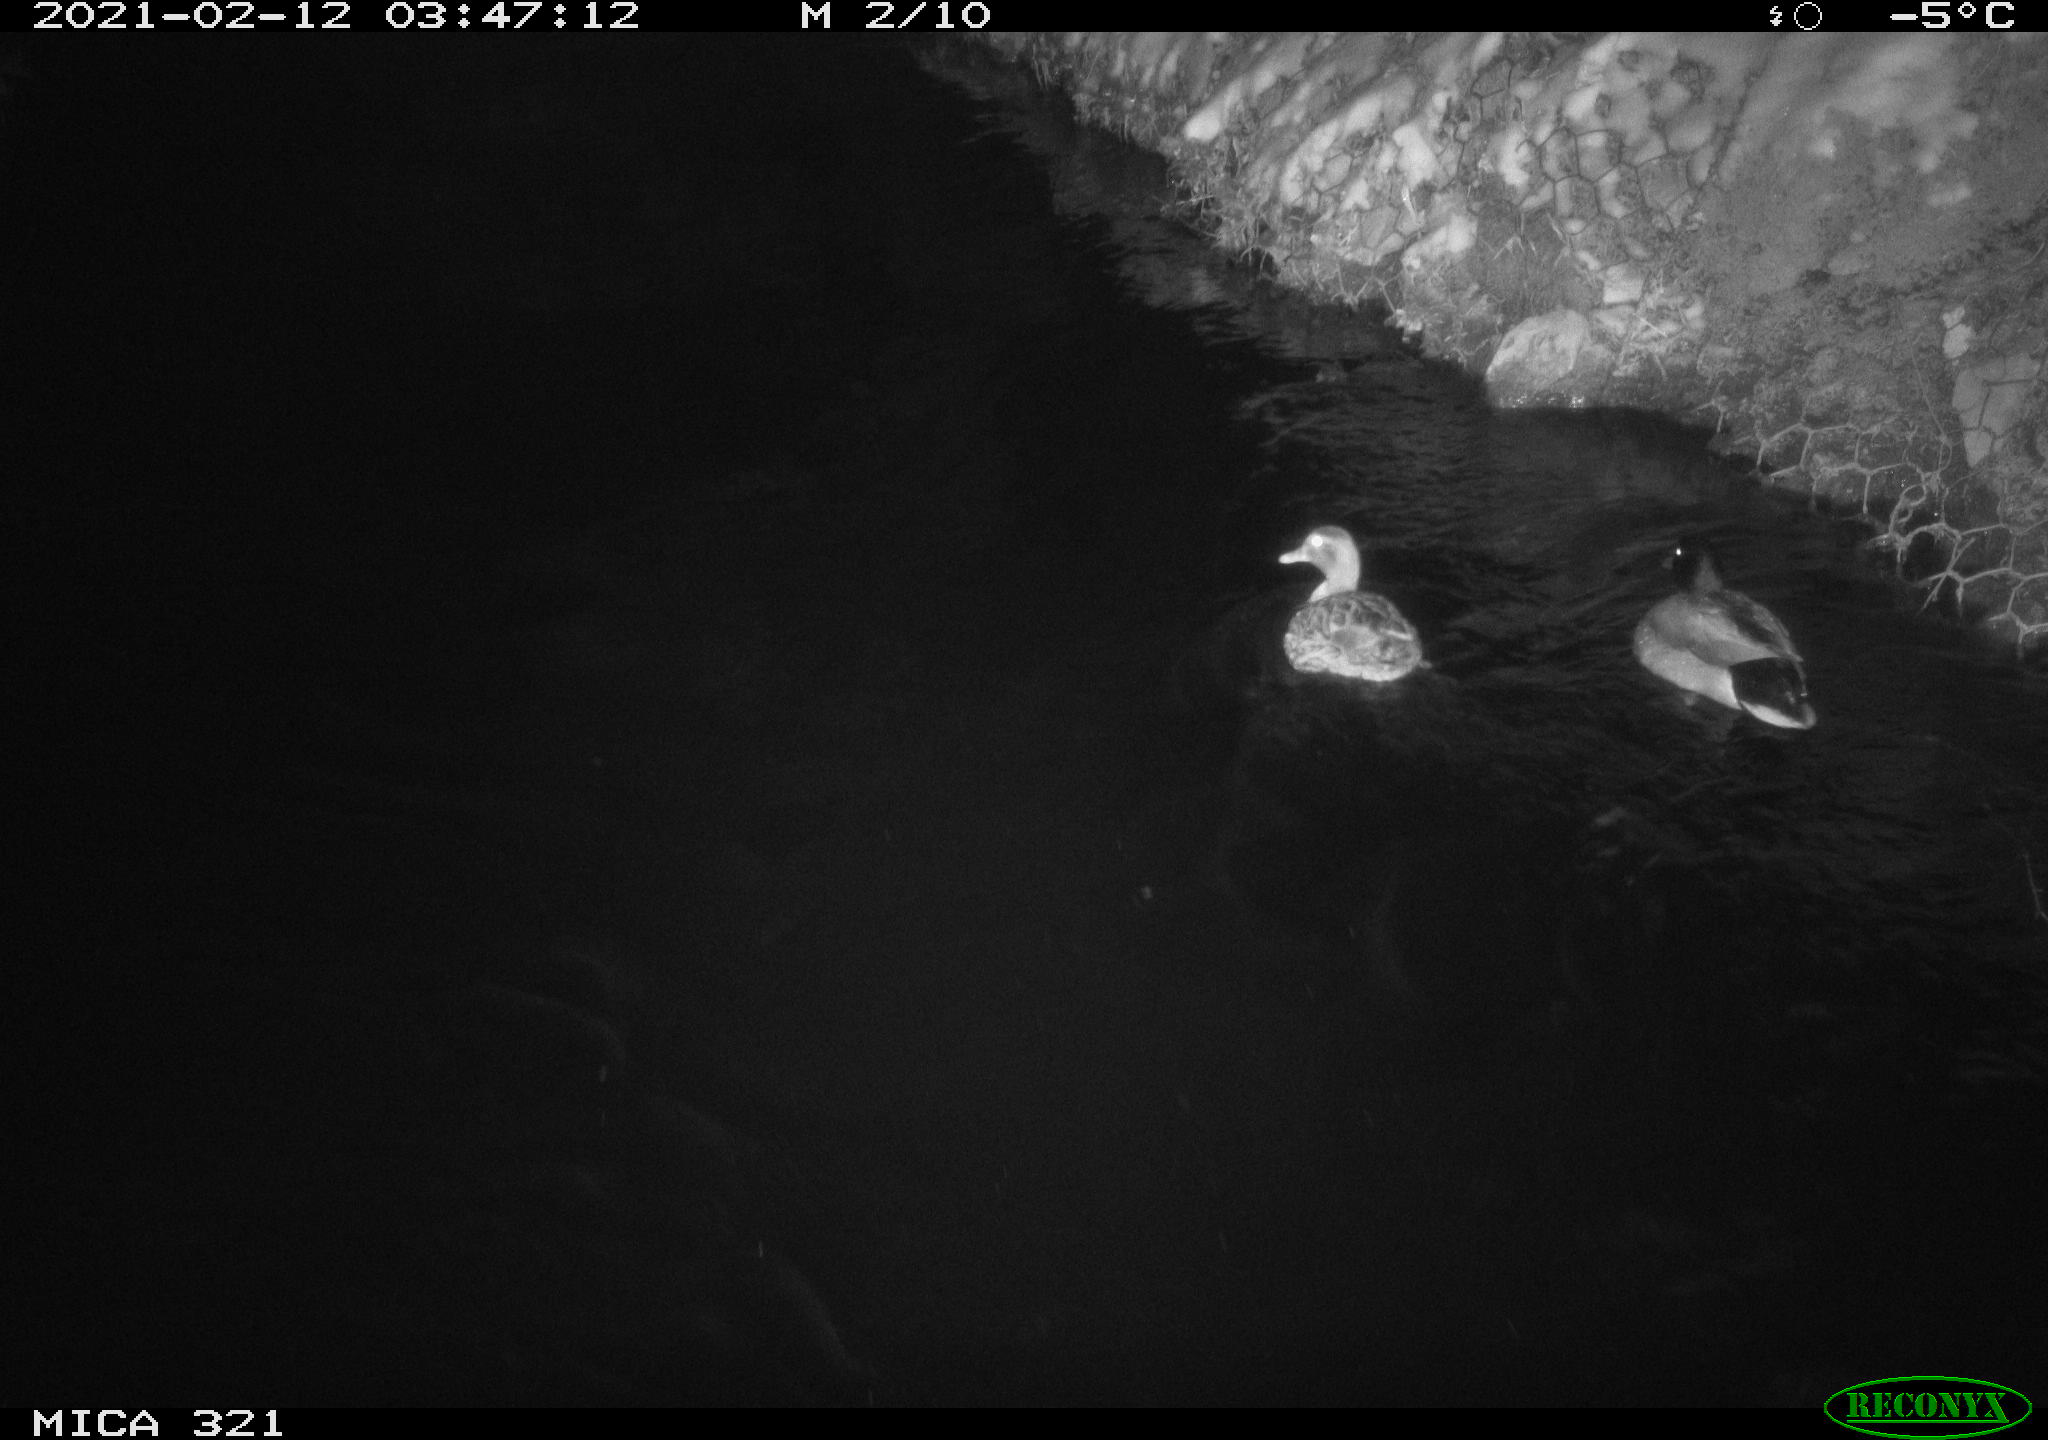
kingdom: Animalia
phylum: Chordata
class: Aves
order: Anseriformes
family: Anatidae
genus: Anas
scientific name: Anas platyrhynchos
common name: Mallard
